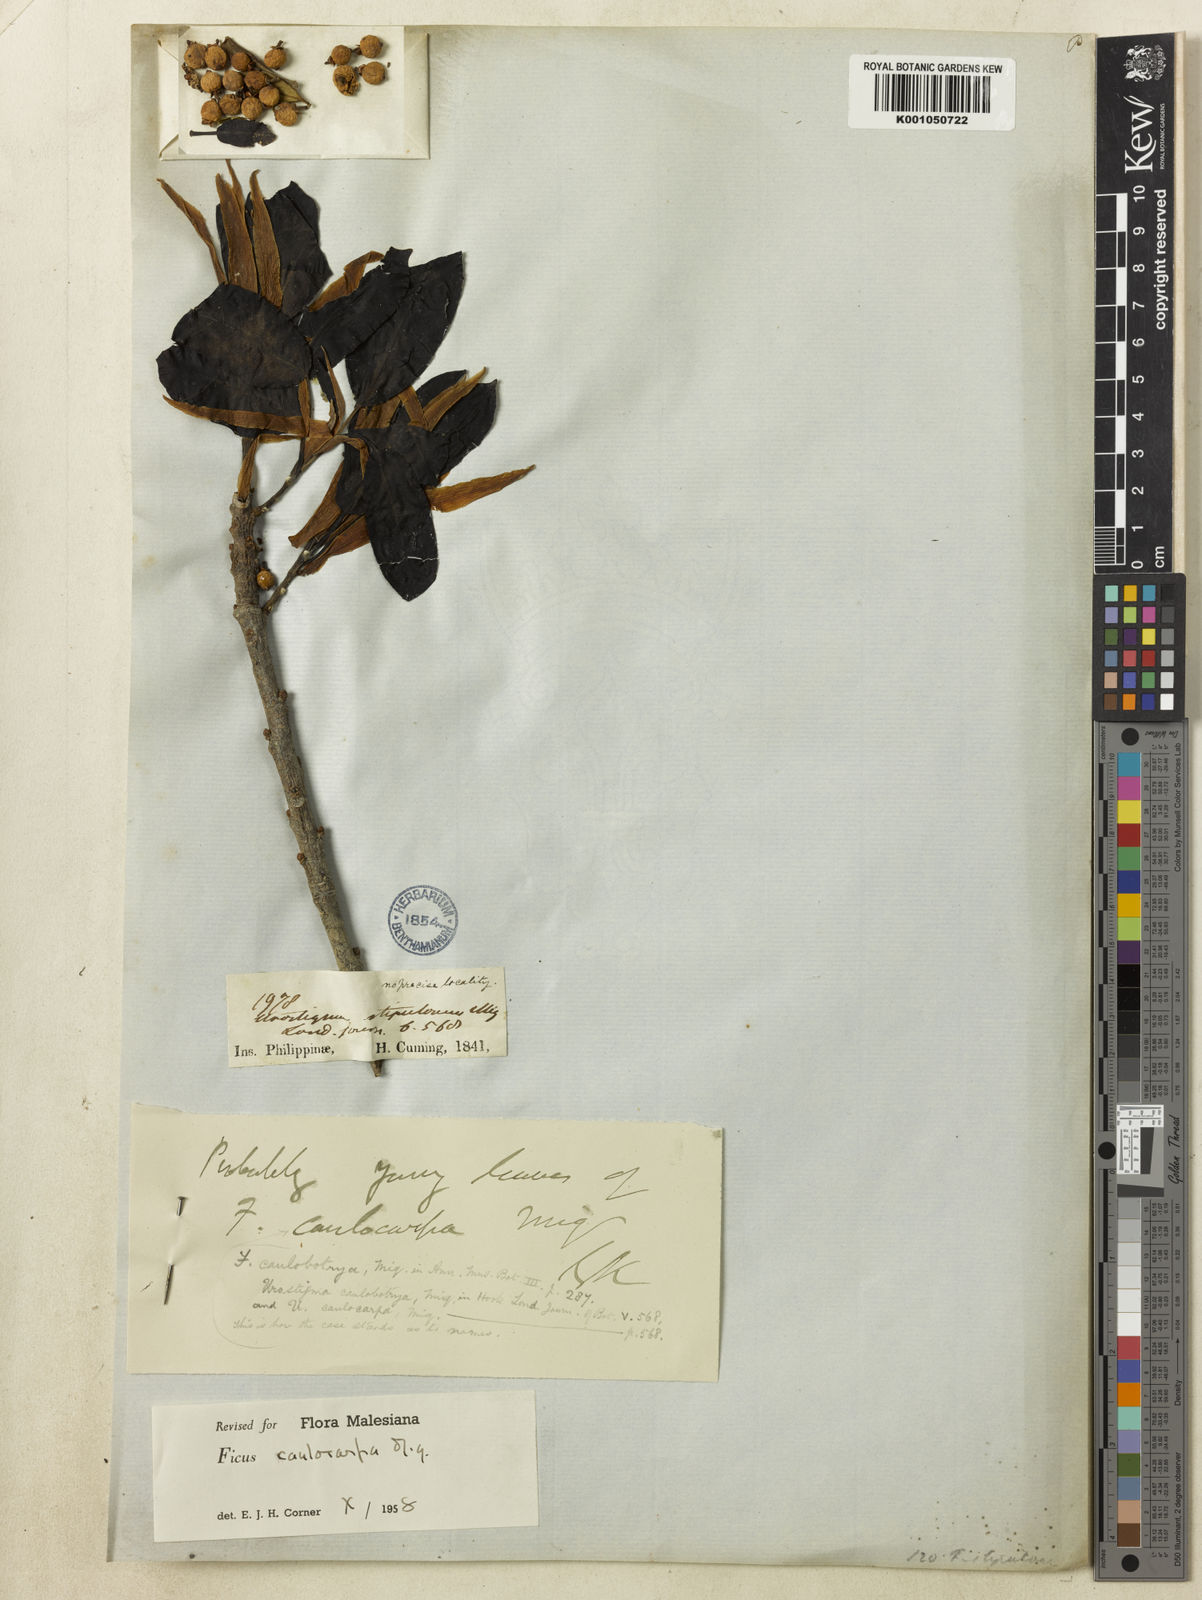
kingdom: Plantae
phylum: Tracheophyta
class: Magnoliopsida
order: Rosales
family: Moraceae
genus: Ficus
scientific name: Ficus caulocarpa
